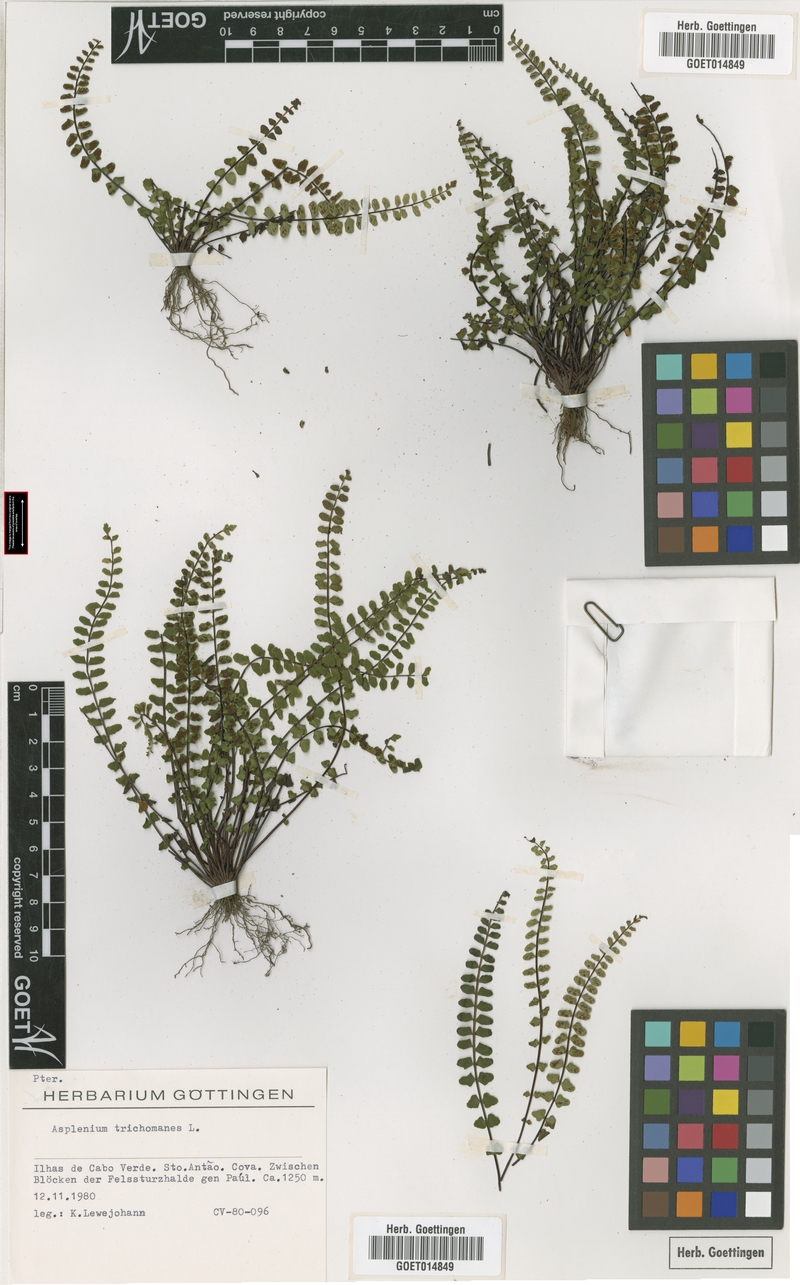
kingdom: Plantae
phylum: Tracheophyta
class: Polypodiopsida
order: Polypodiales
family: Aspleniaceae
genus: Asplenium
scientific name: Asplenium trichomanes
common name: Maidenhair spleenwort
